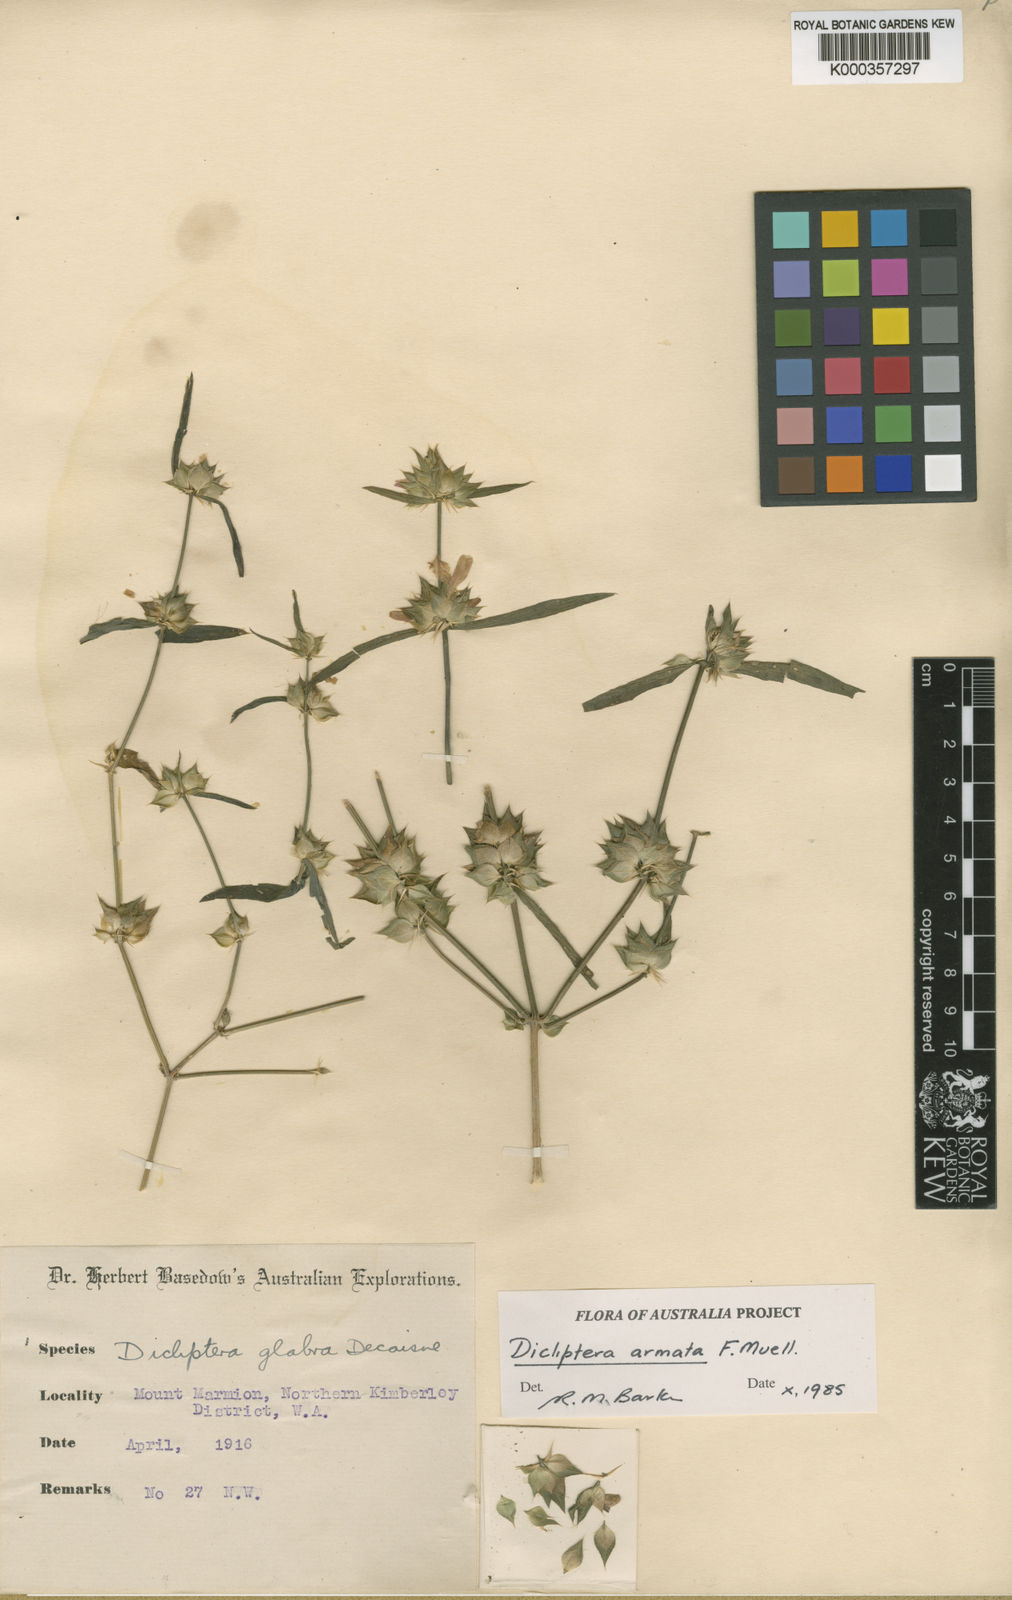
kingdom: Plantae
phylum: Tracheophyta
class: Magnoliopsida
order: Lamiales
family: Acanthaceae
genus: Dicliptera
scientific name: Dicliptera armata
